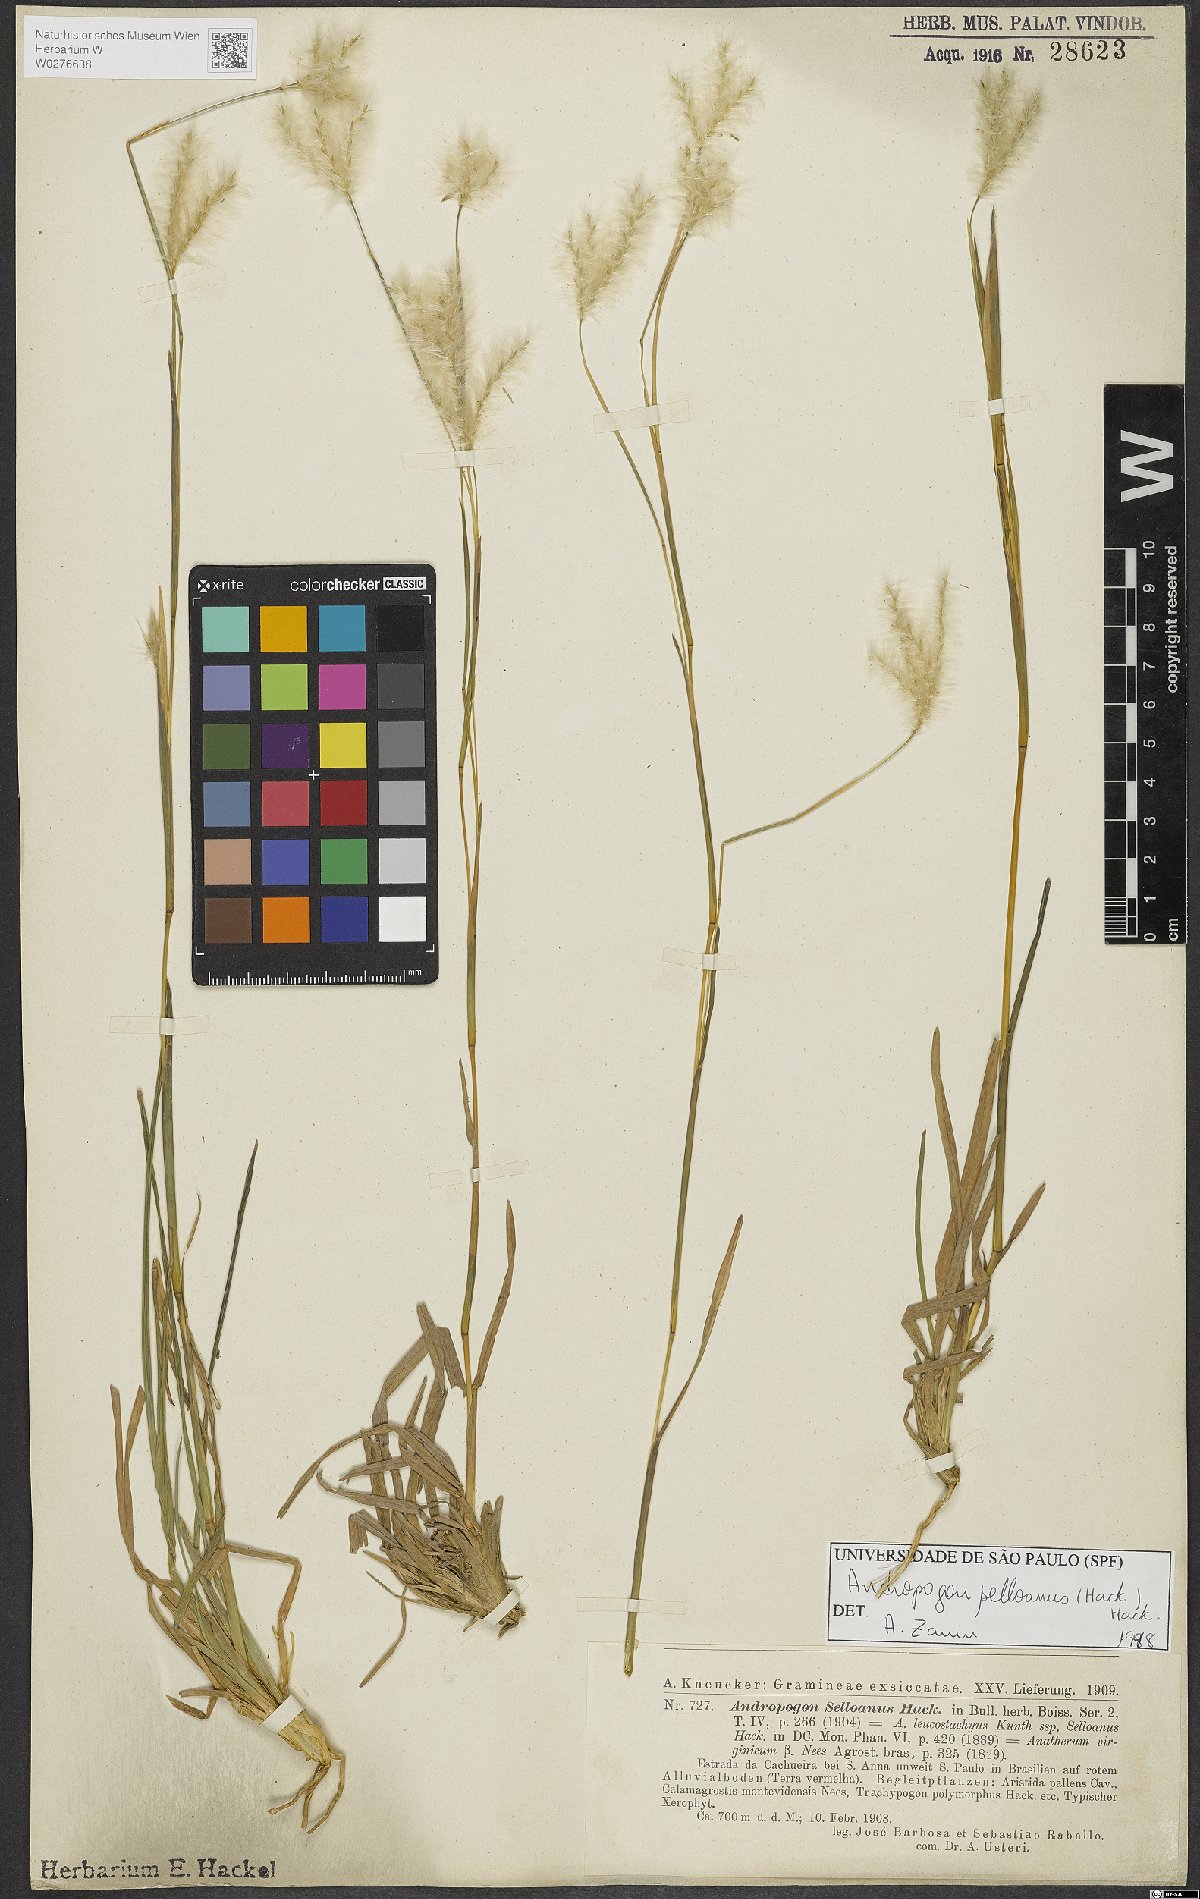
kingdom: Plantae
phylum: Tracheophyta
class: Liliopsida
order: Poales
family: Poaceae
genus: Andropogon
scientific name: Andropogon selloanus
